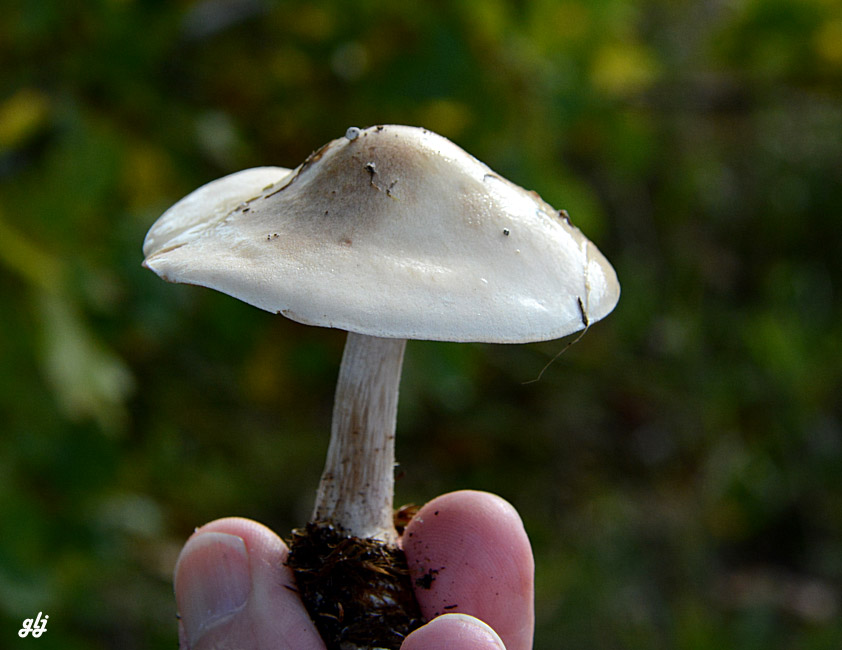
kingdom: Fungi
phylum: Basidiomycota
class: Agaricomycetes
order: Agaricales
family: Hymenogastraceae
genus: Hebeloma
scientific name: Hebeloma
